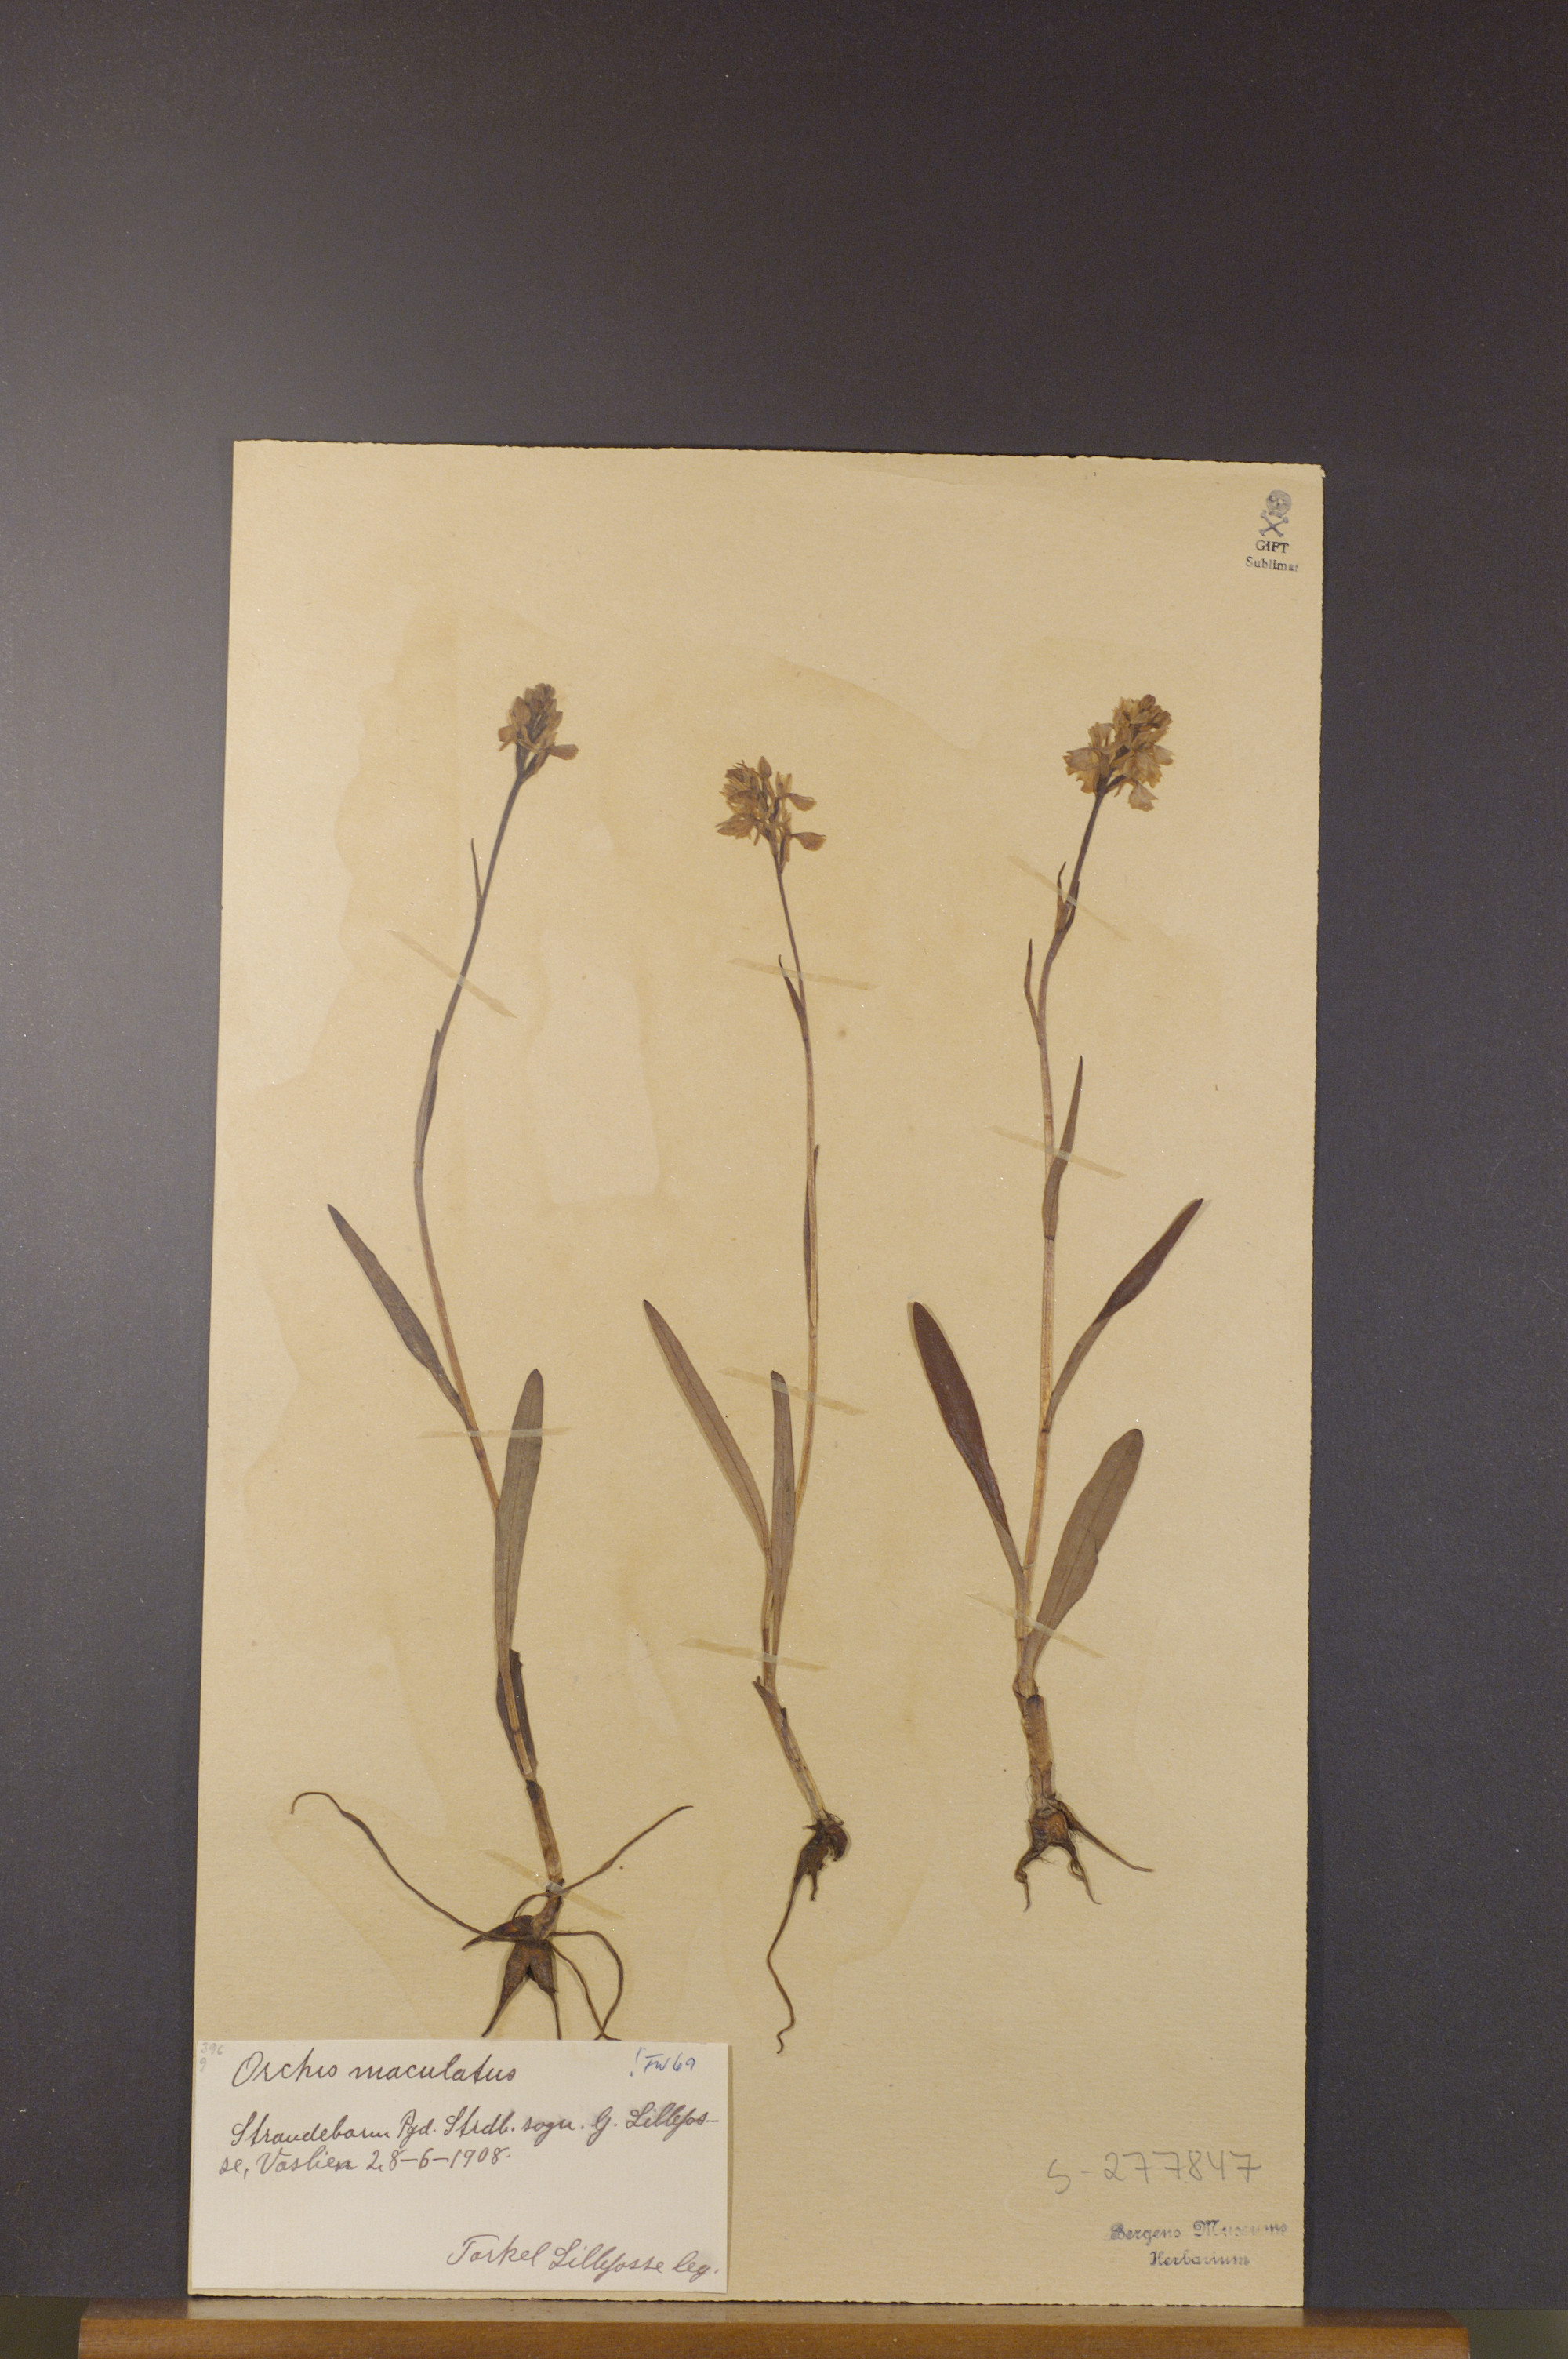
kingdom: Plantae
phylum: Tracheophyta
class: Liliopsida
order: Asparagales
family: Orchidaceae
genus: Dactylorhiza
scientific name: Dactylorhiza maculata
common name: Heath spotted-orchid
